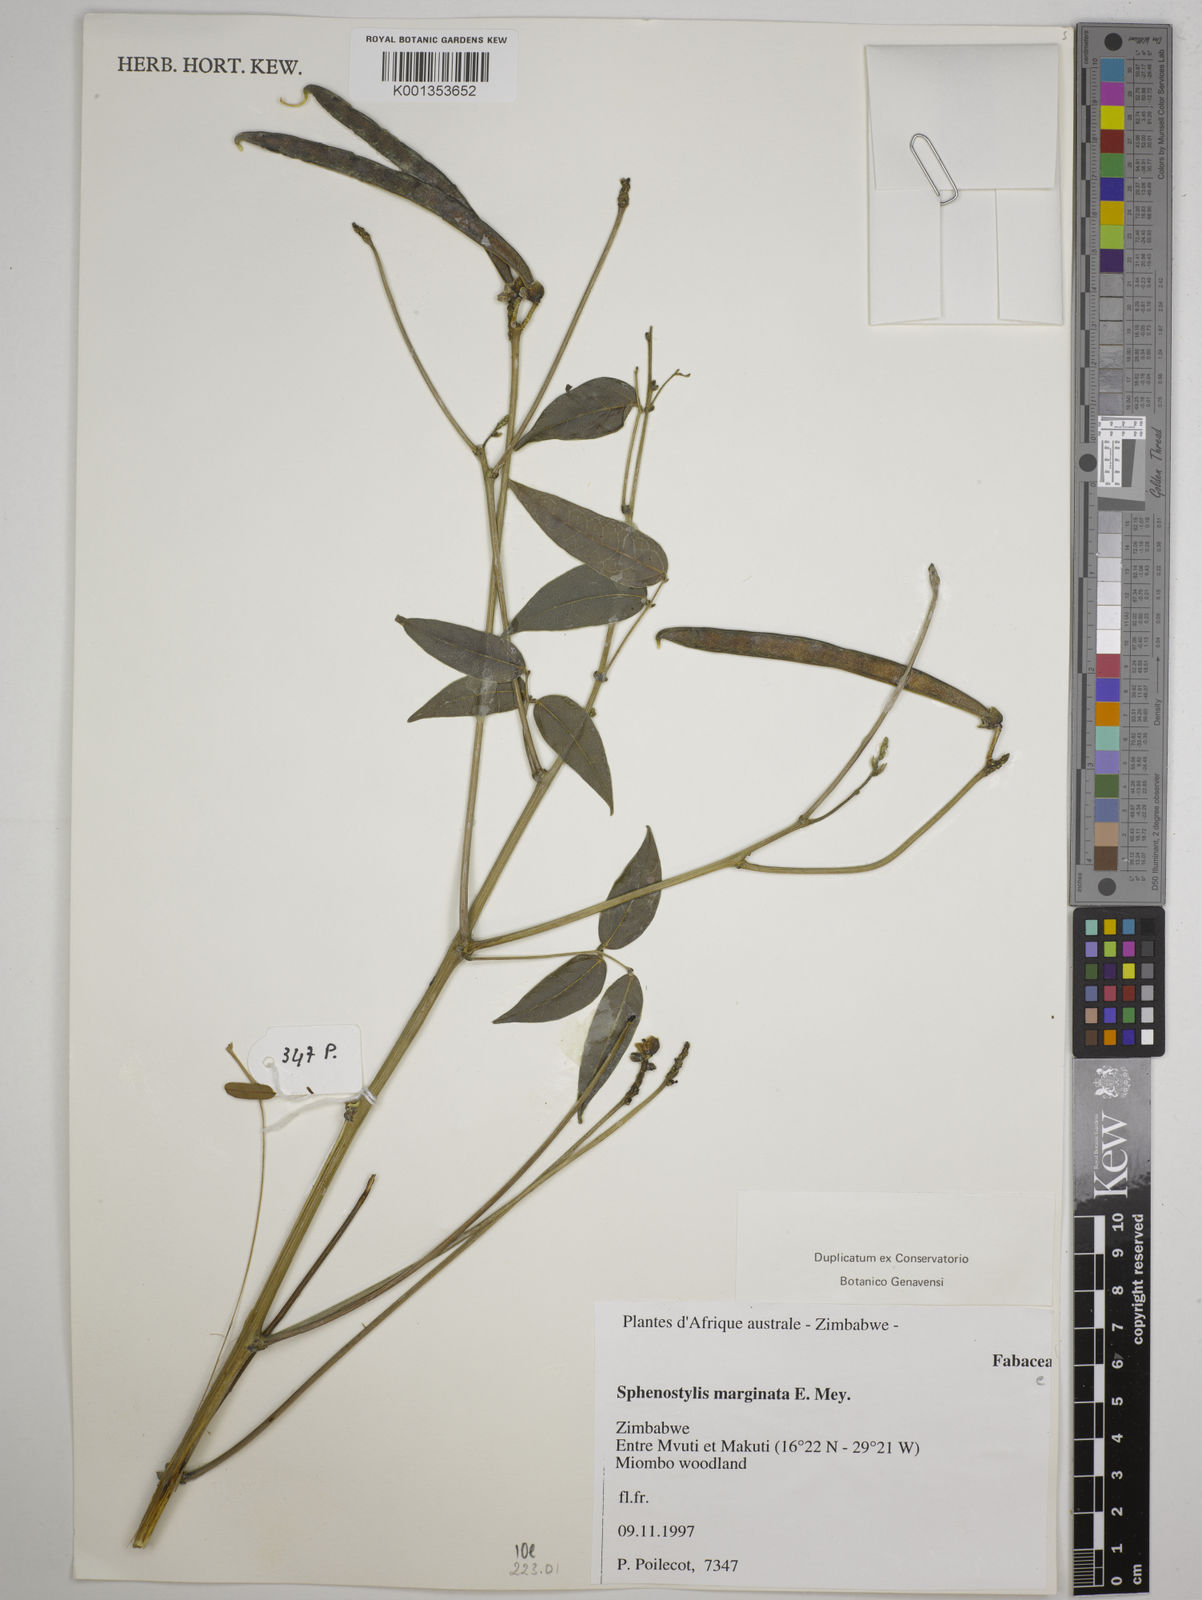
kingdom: Plantae
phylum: Tracheophyta
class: Magnoliopsida
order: Fabales
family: Fabaceae
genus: Sphenostylis
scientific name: Sphenostylis erecta
